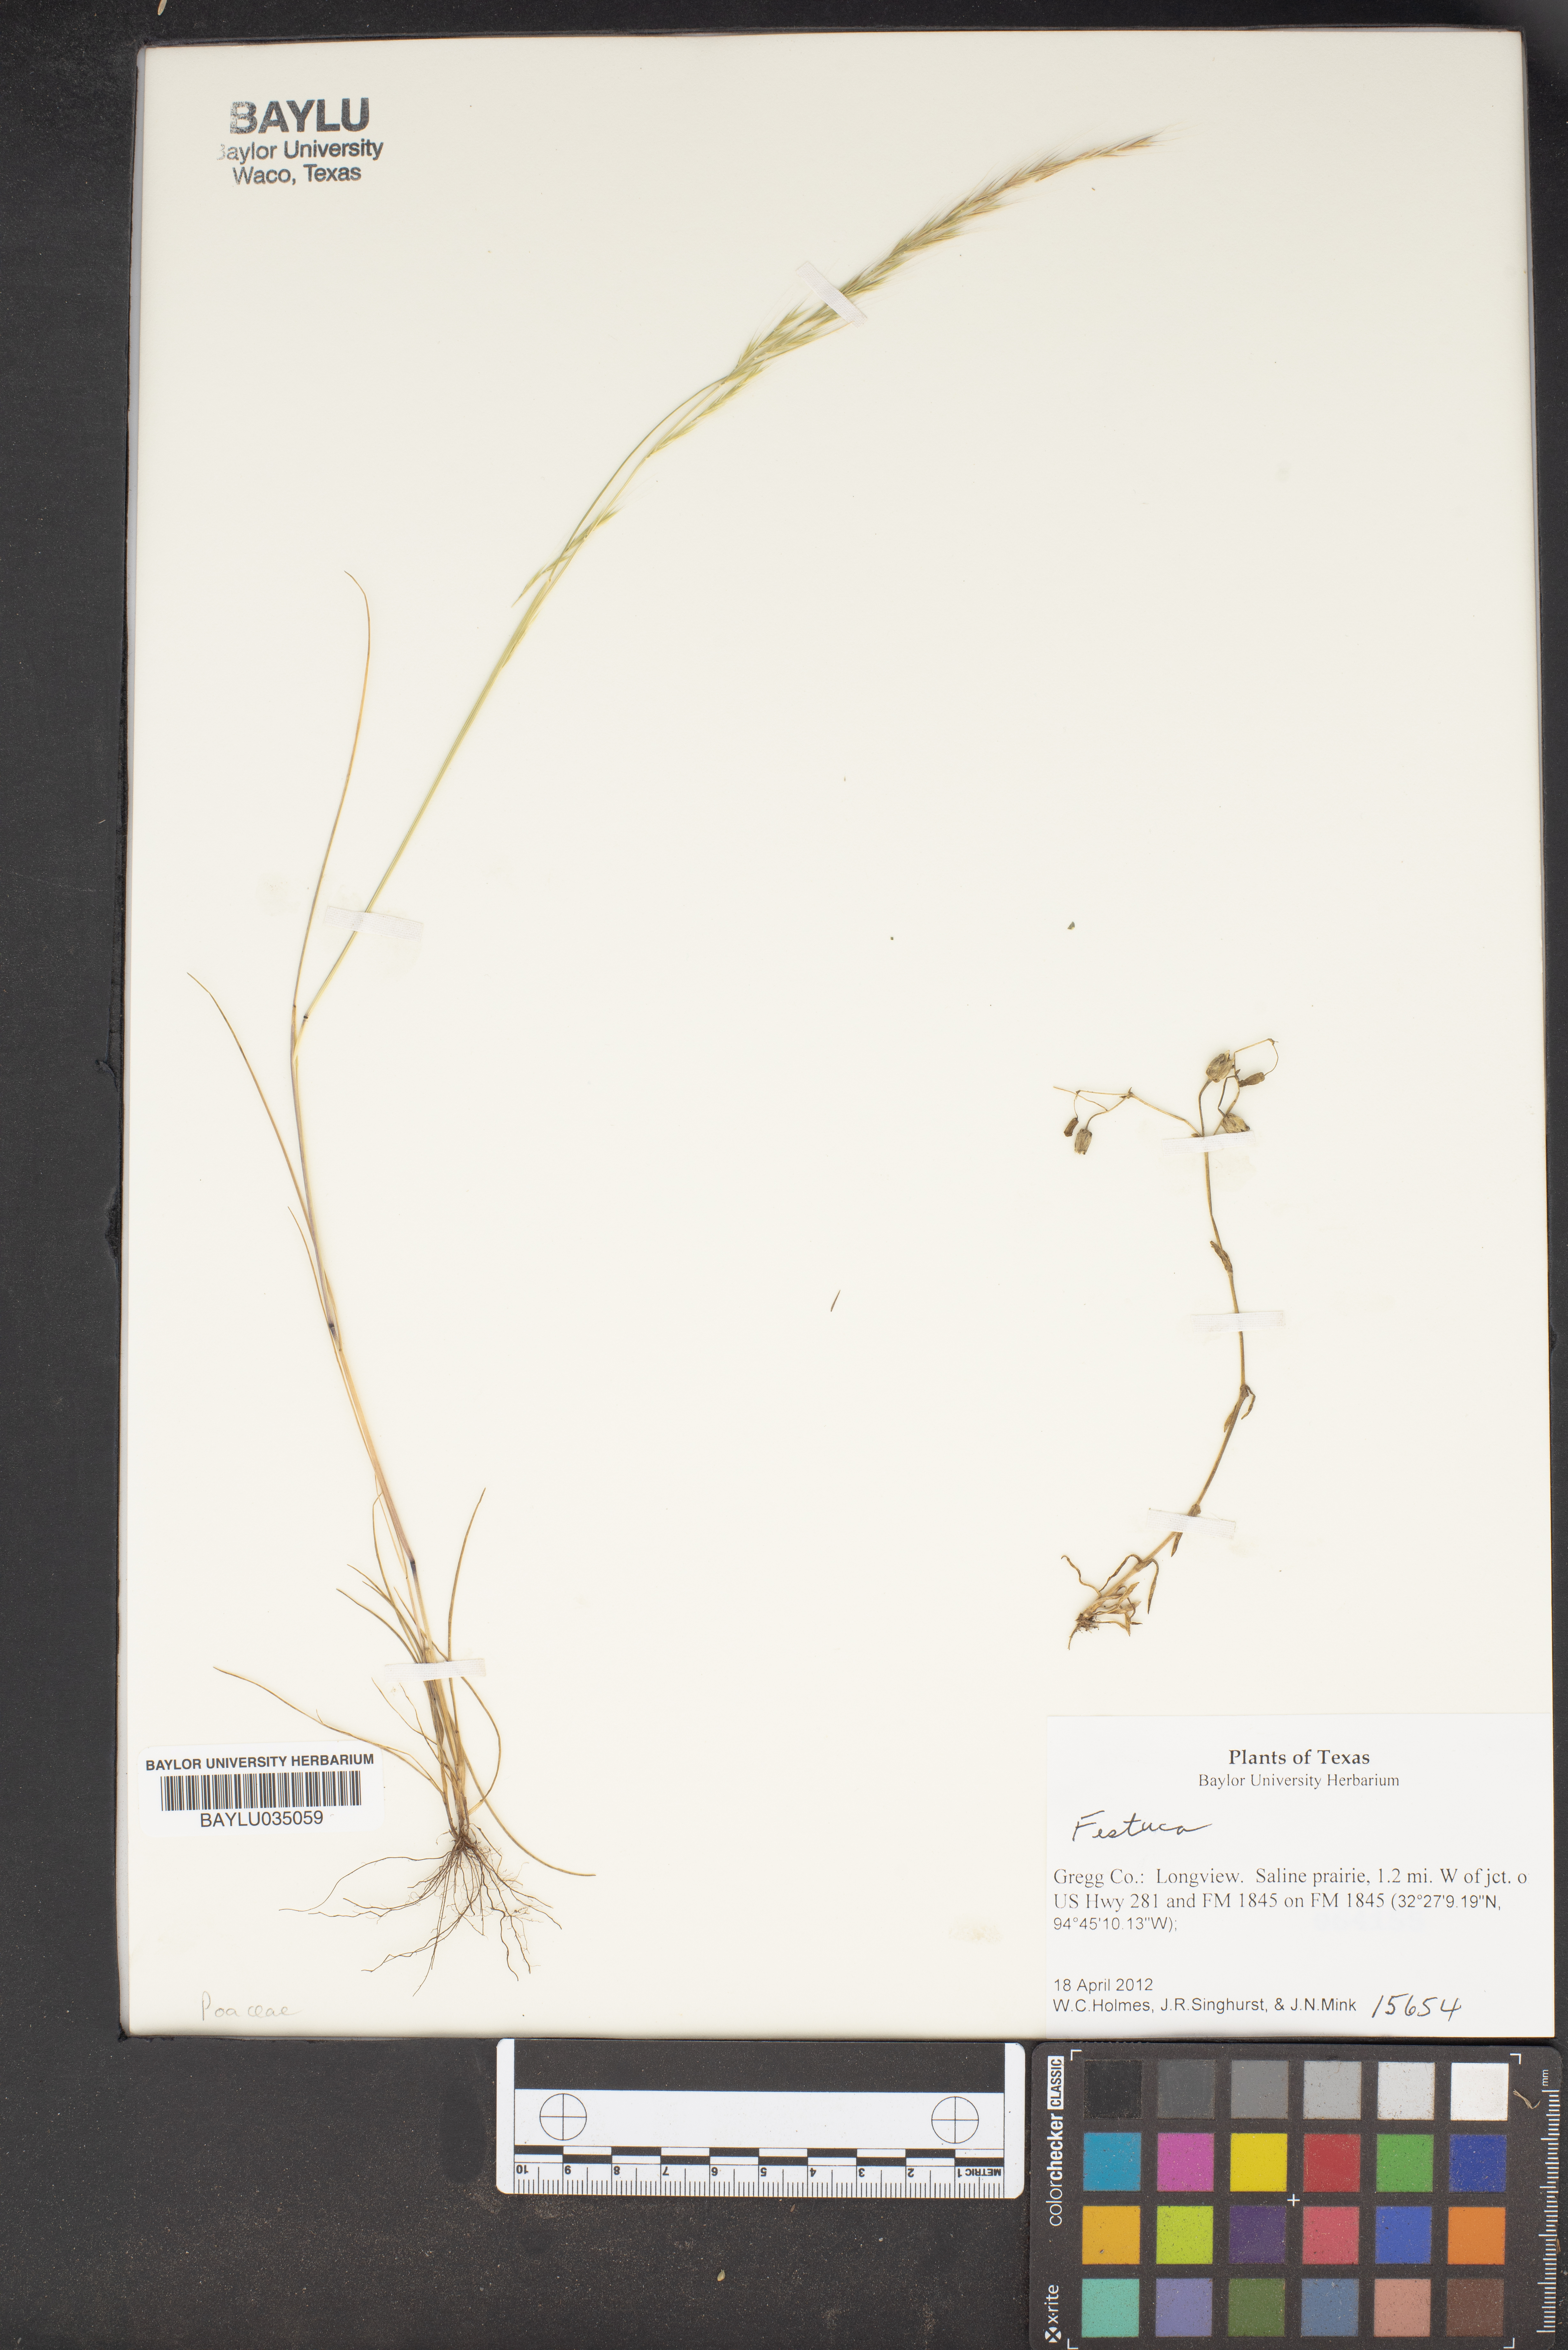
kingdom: Plantae
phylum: Tracheophyta
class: Liliopsida
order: Poales
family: Poaceae
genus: Festuca
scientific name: Festuca
